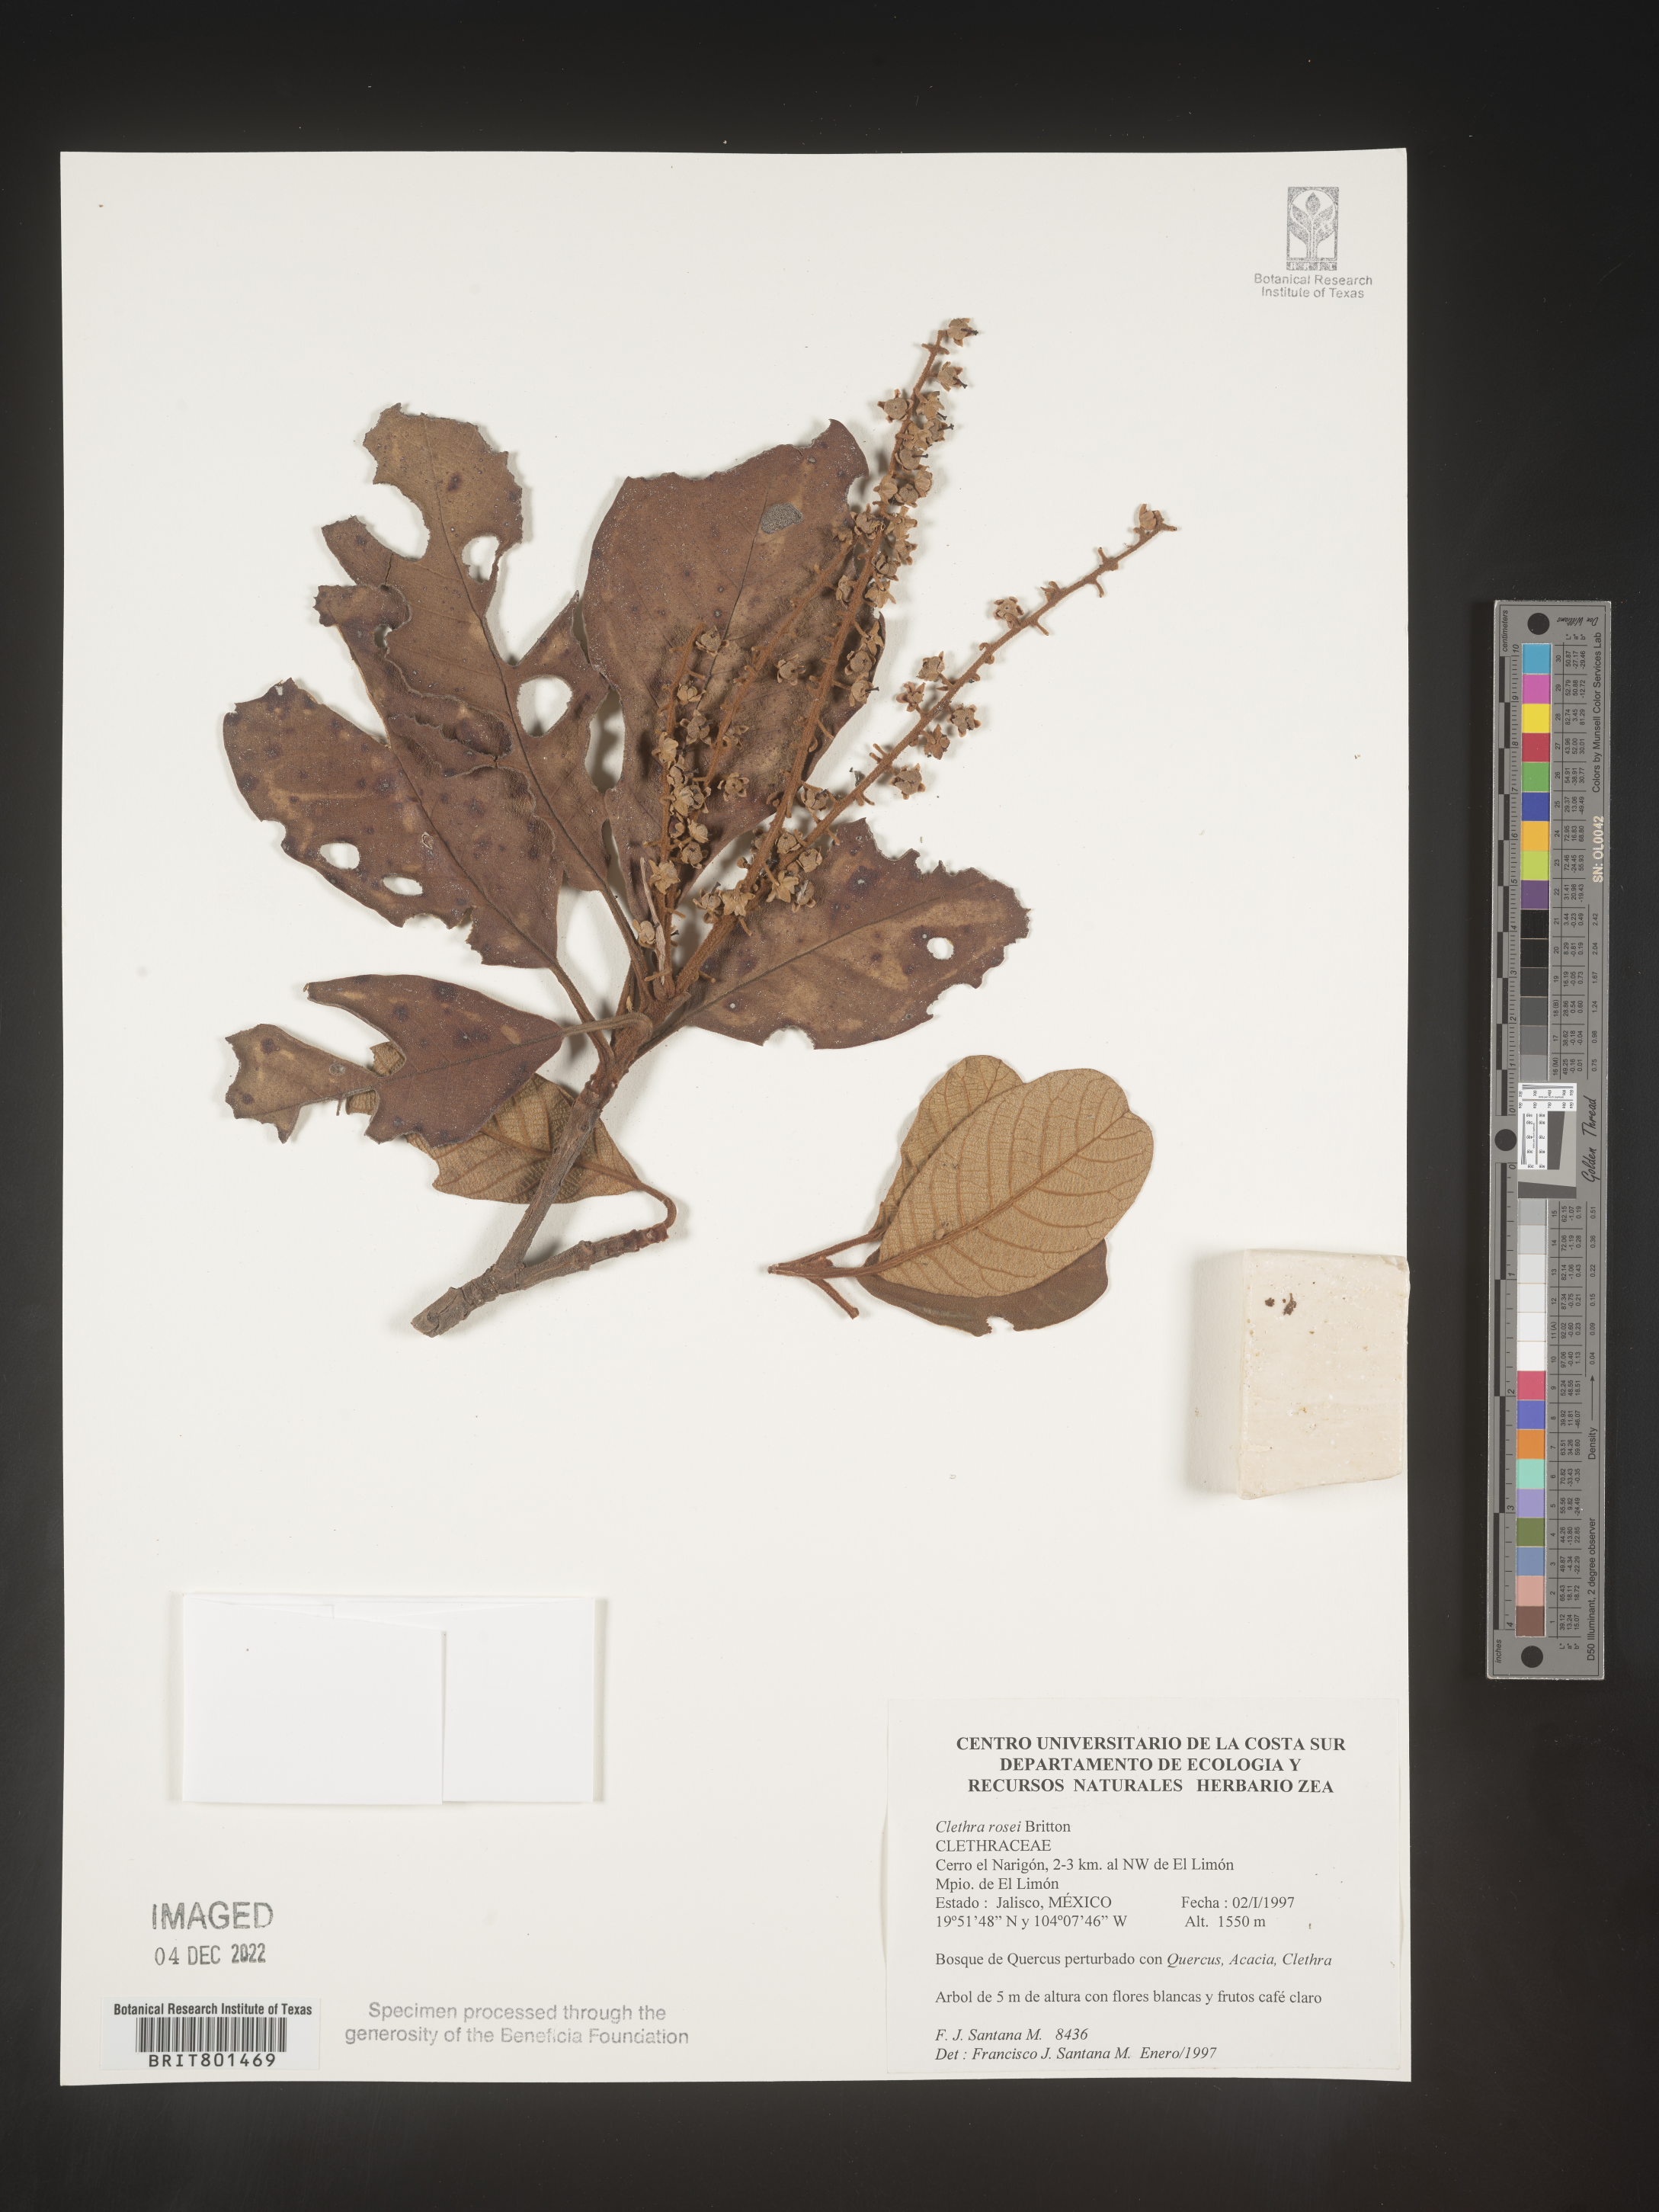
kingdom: Plantae
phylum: Tracheophyta
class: Magnoliopsida
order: Ericales
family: Clethraceae
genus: Clethra
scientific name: Clethra
